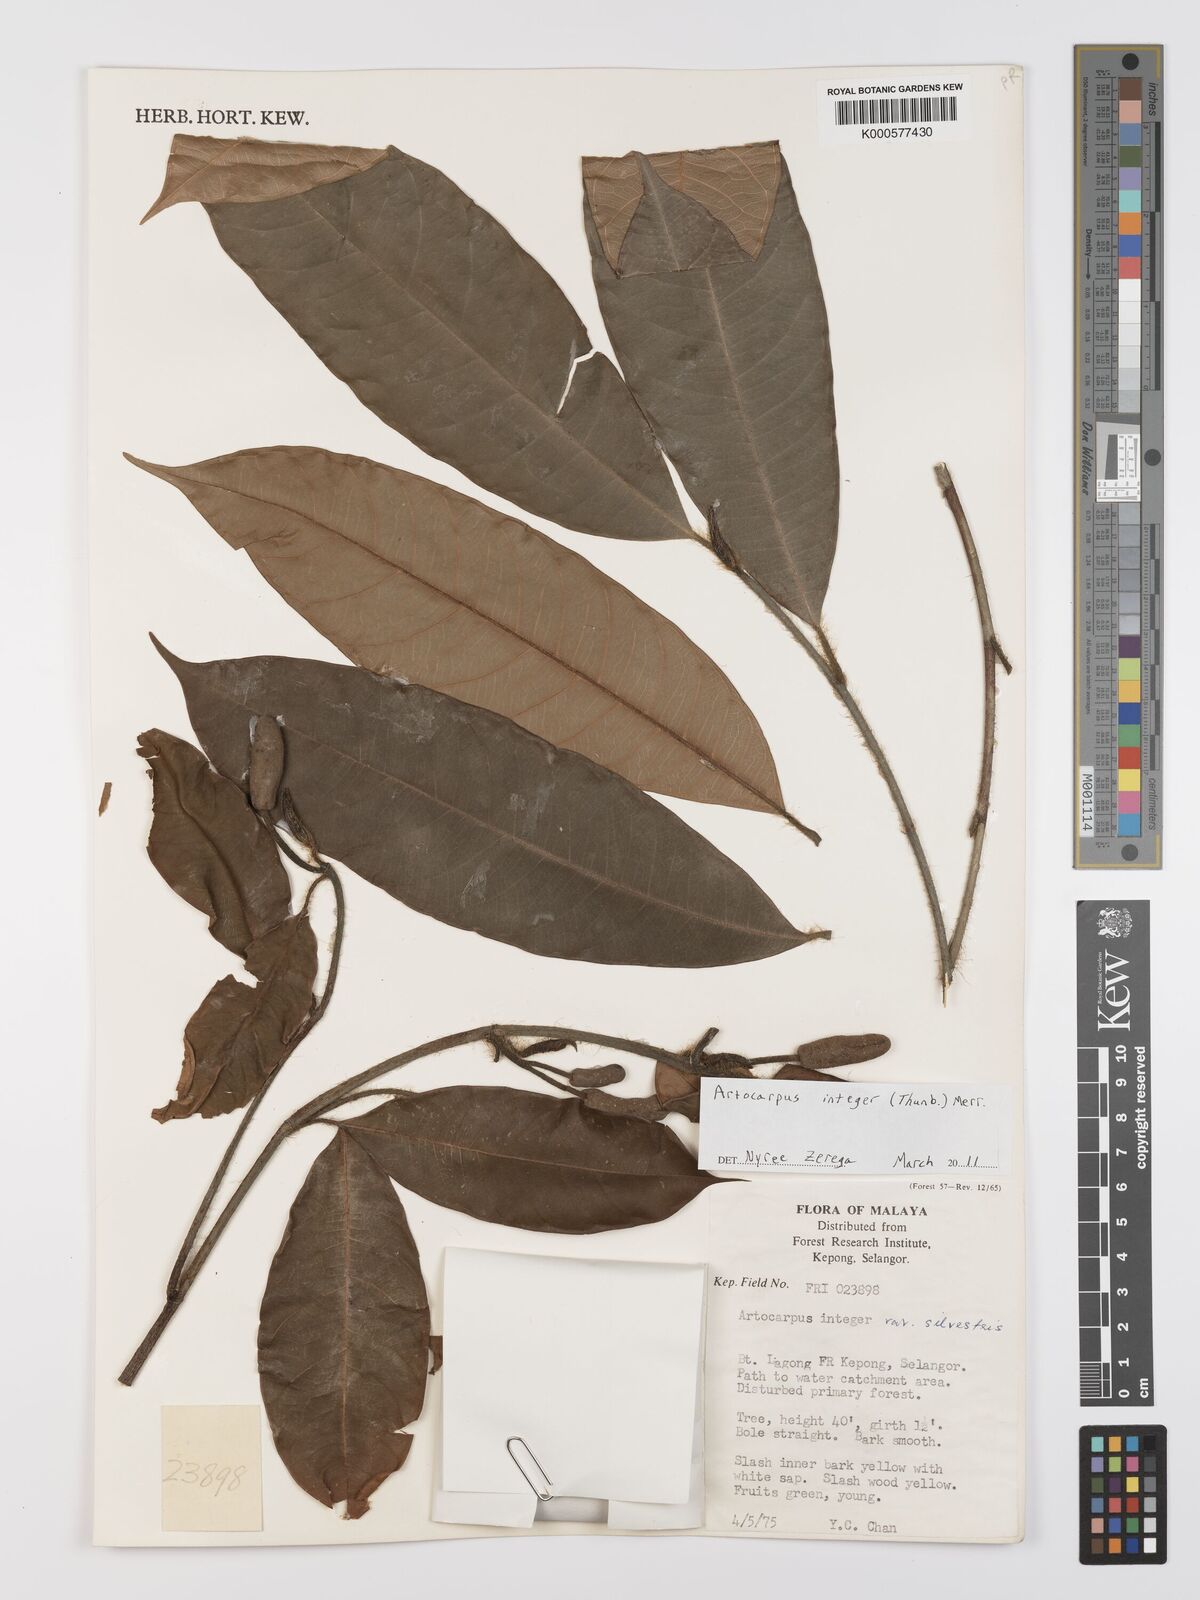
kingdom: Plantae
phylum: Tracheophyta
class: Magnoliopsida
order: Rosales
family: Moraceae
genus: Artocarpus
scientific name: Artocarpus integer
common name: Chempedak
